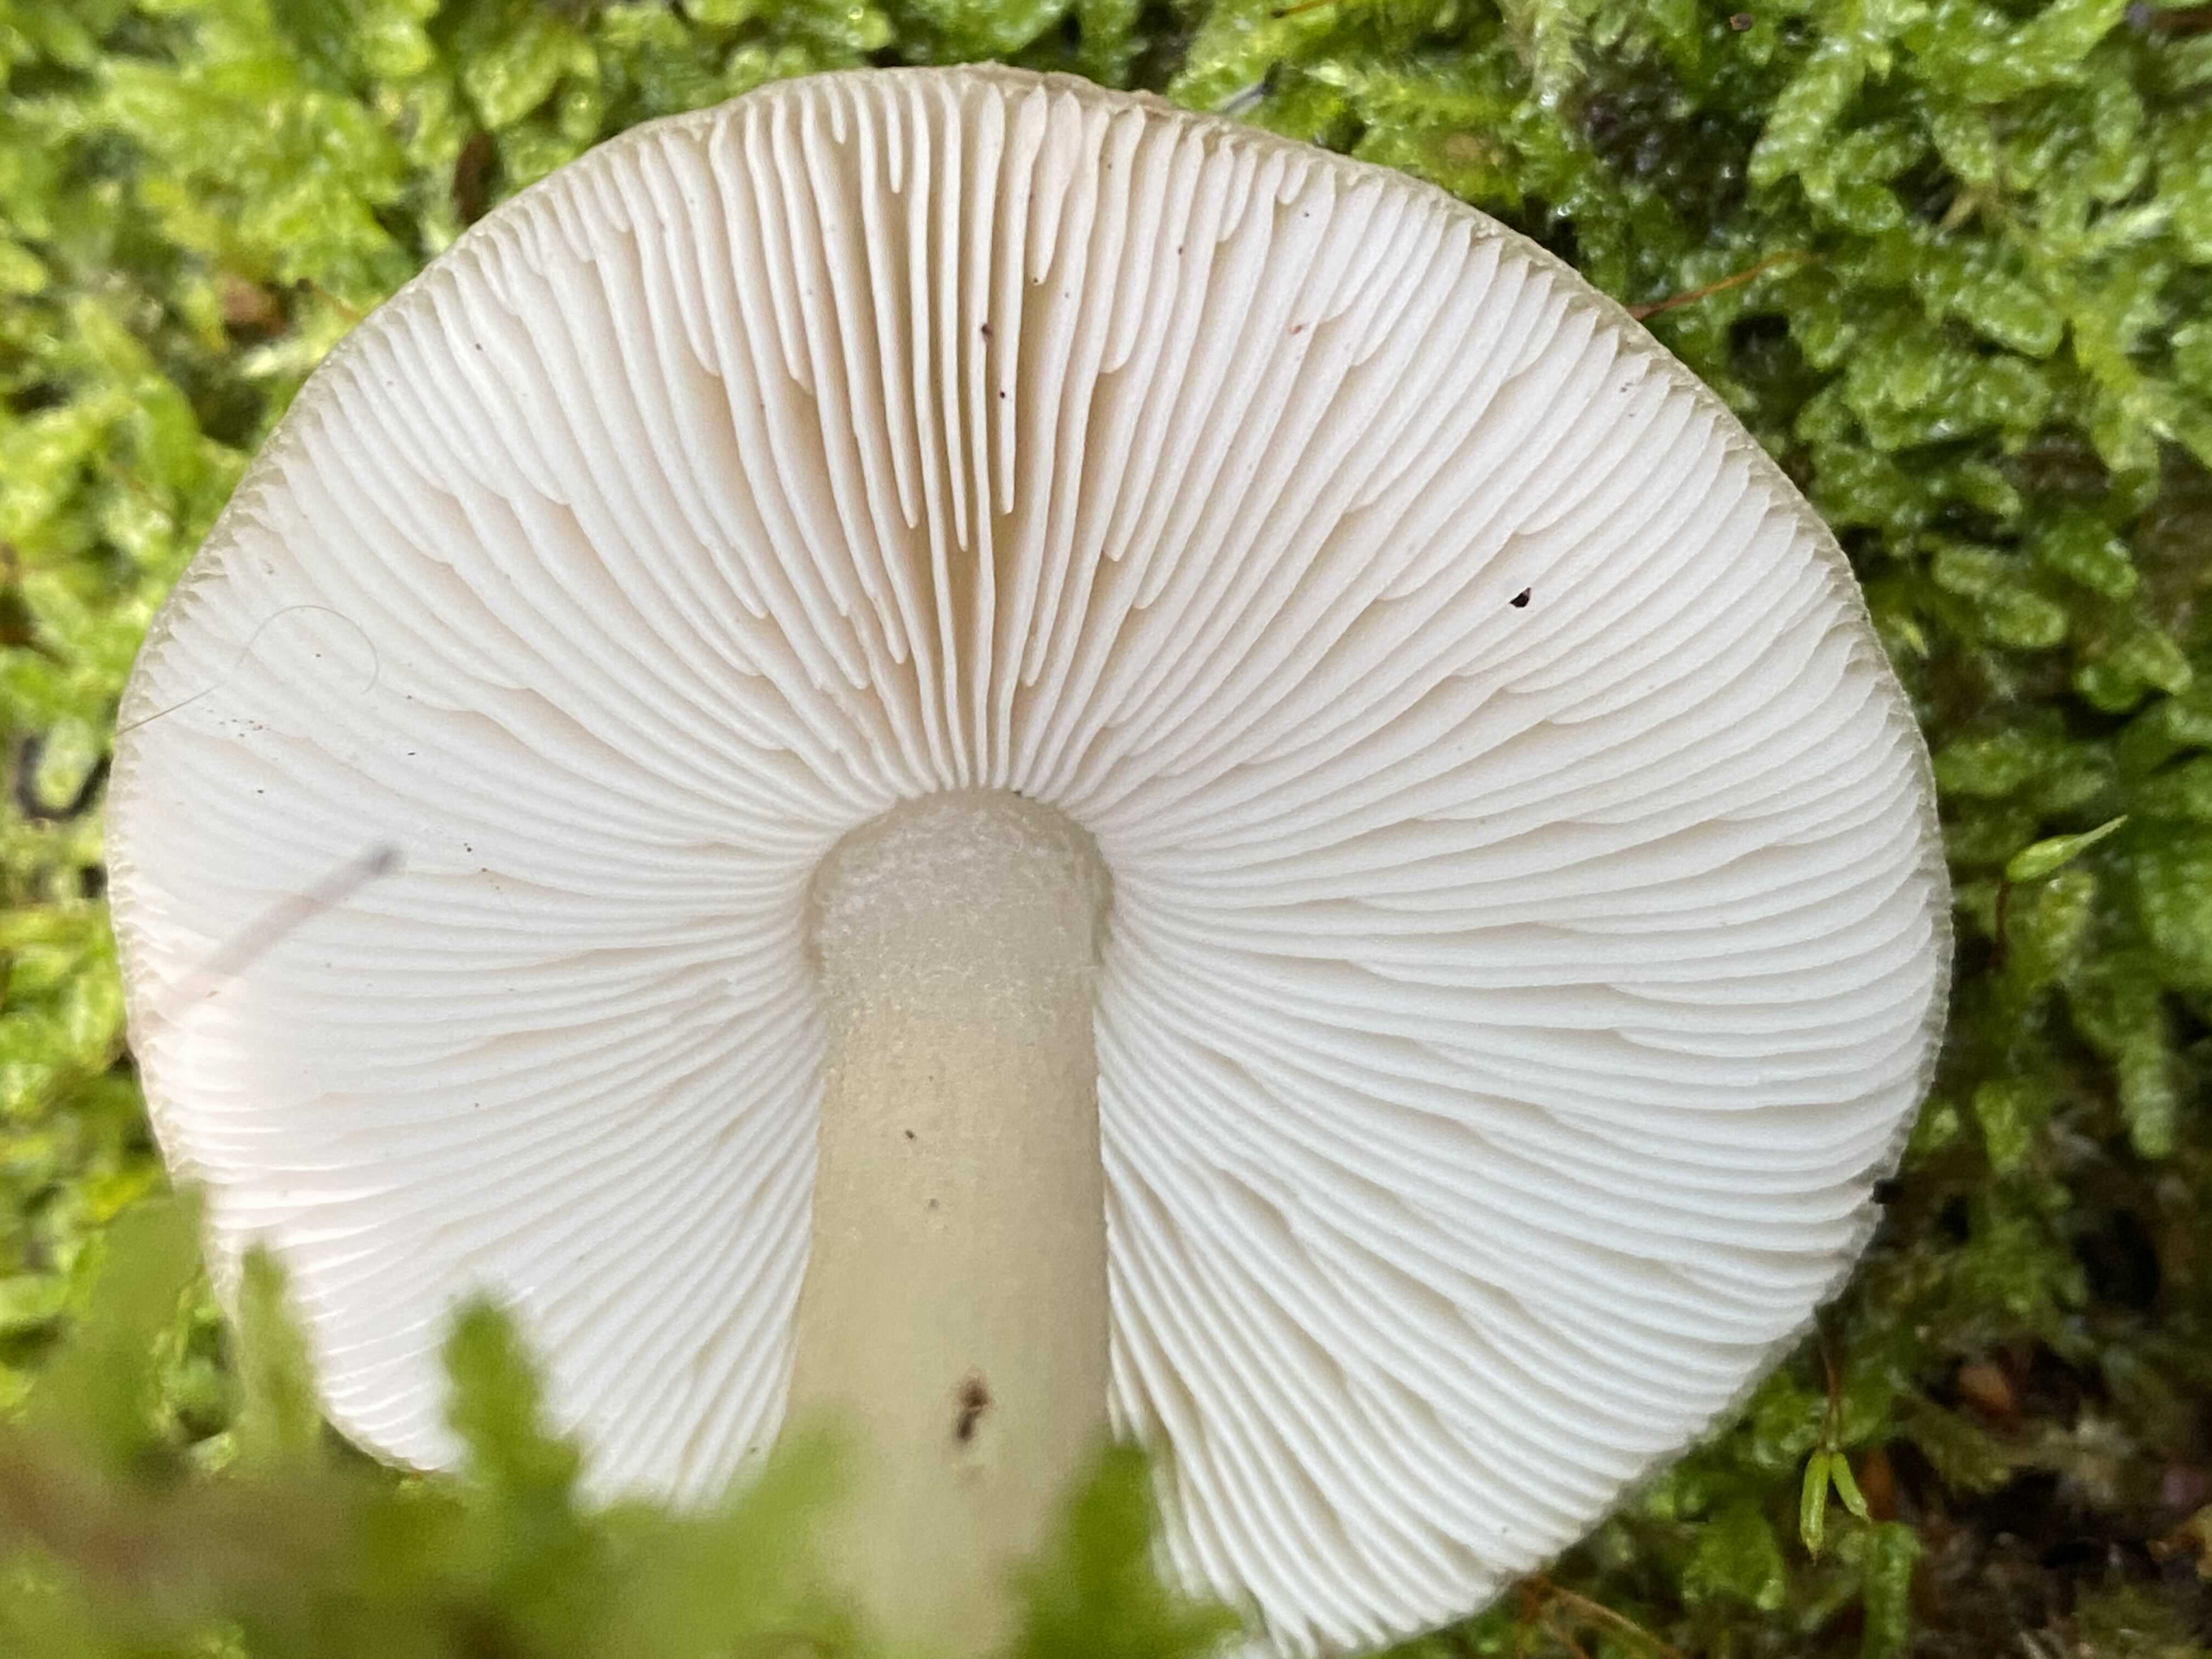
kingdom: Fungi
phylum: Basidiomycota
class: Agaricomycetes
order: Agaricales
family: Pluteaceae
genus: Pluteus
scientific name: Pluteus cervinus
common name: sodfarvet skærmhat
